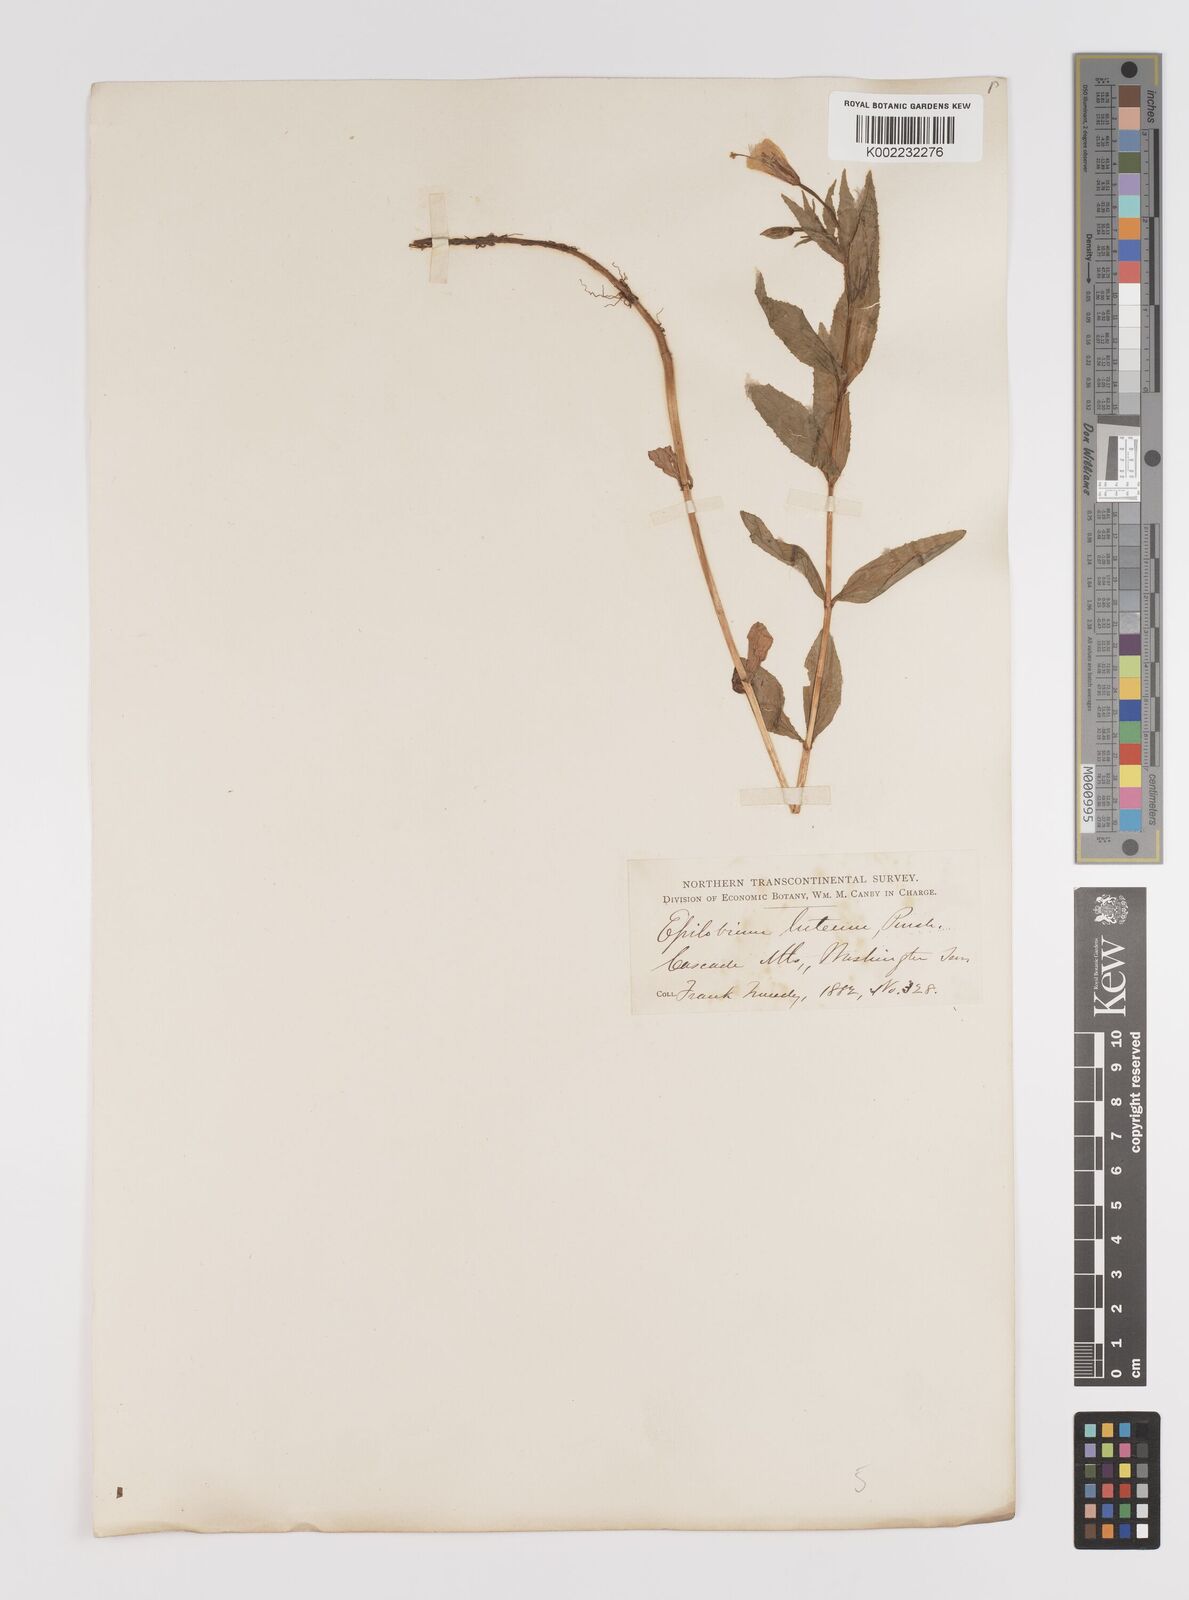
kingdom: Plantae
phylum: Tracheophyta
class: Magnoliopsida
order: Myrtales
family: Onagraceae
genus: Epilobium
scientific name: Epilobium luteum
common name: Yellow willowherb
